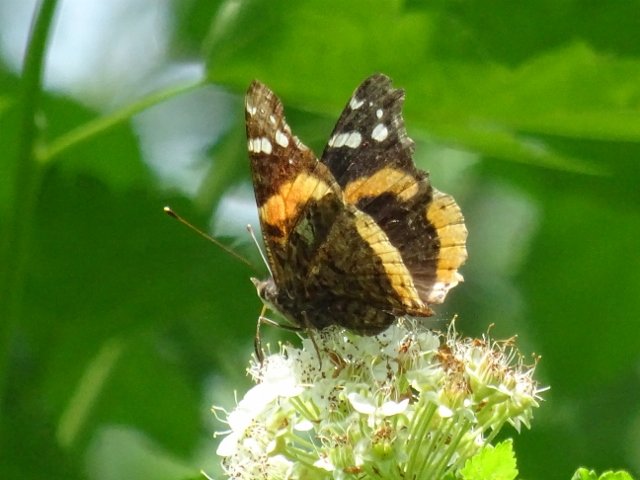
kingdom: Animalia
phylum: Arthropoda
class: Insecta
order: Lepidoptera
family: Nymphalidae
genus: Vanessa
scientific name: Vanessa atalanta
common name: Red Admiral
